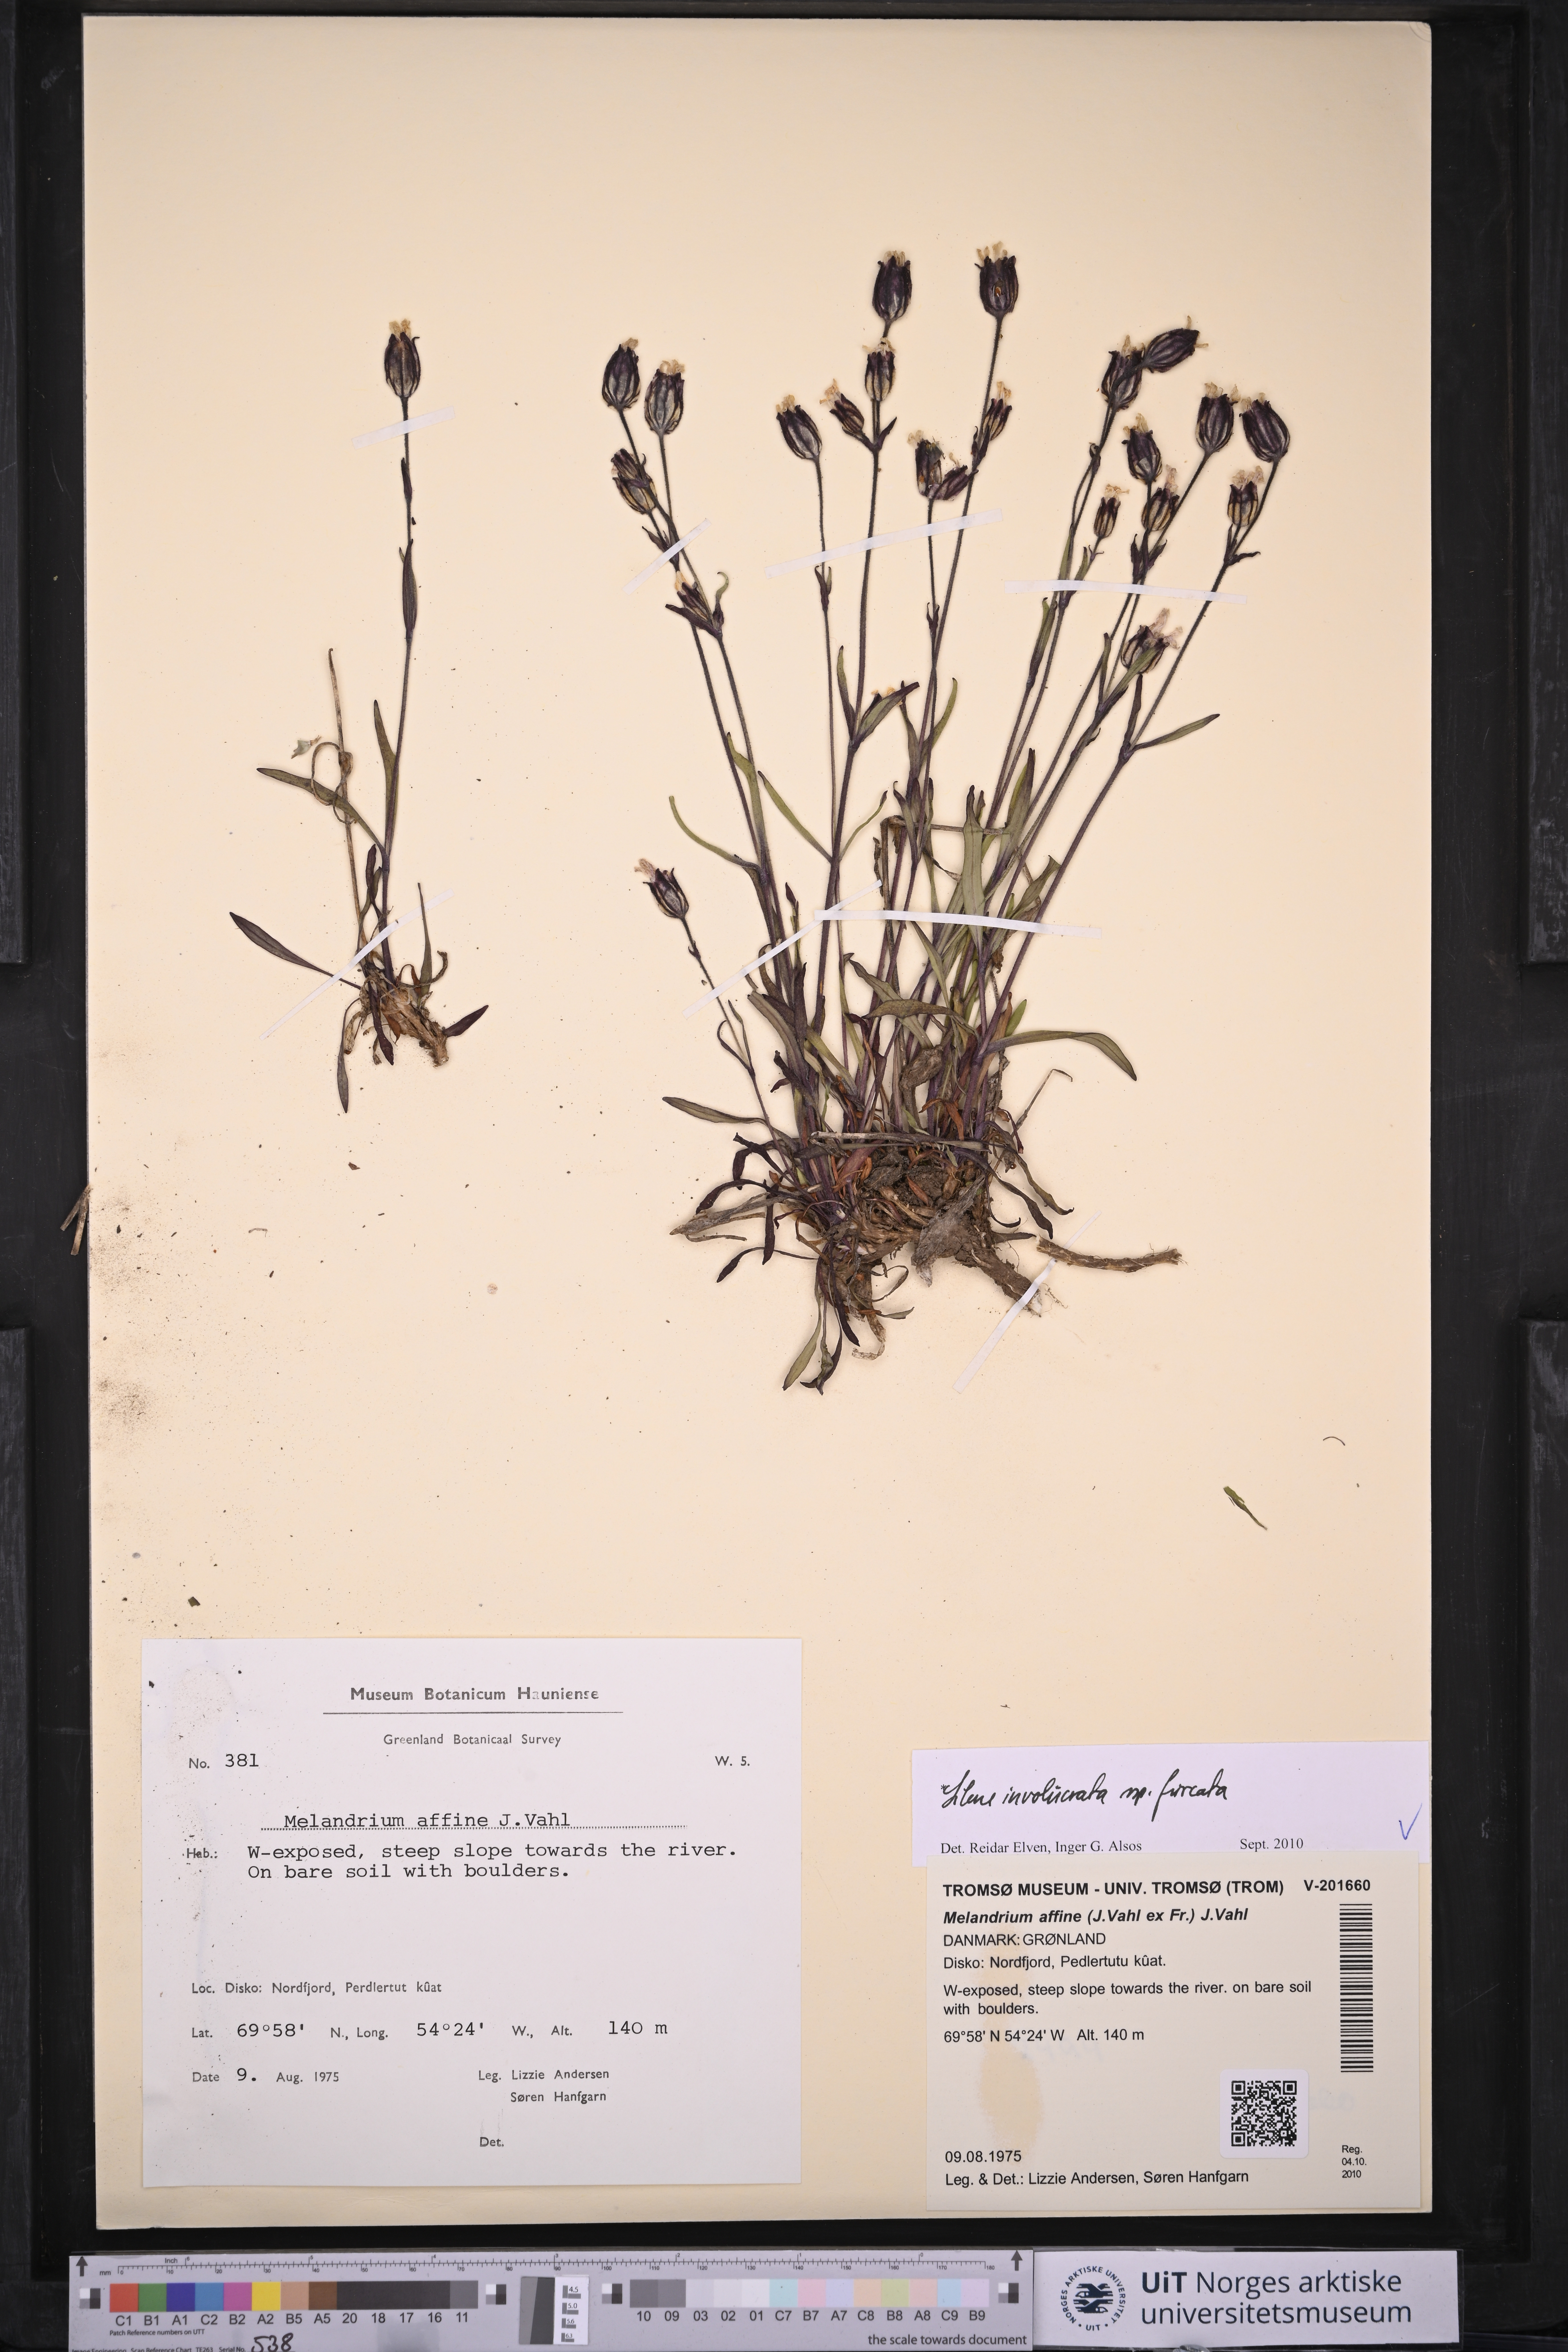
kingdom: Plantae
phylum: Tracheophyta
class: Magnoliopsida
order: Caryophyllales
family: Caryophyllaceae
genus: Silene
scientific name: Silene involucrata
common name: Greater arctic campion
